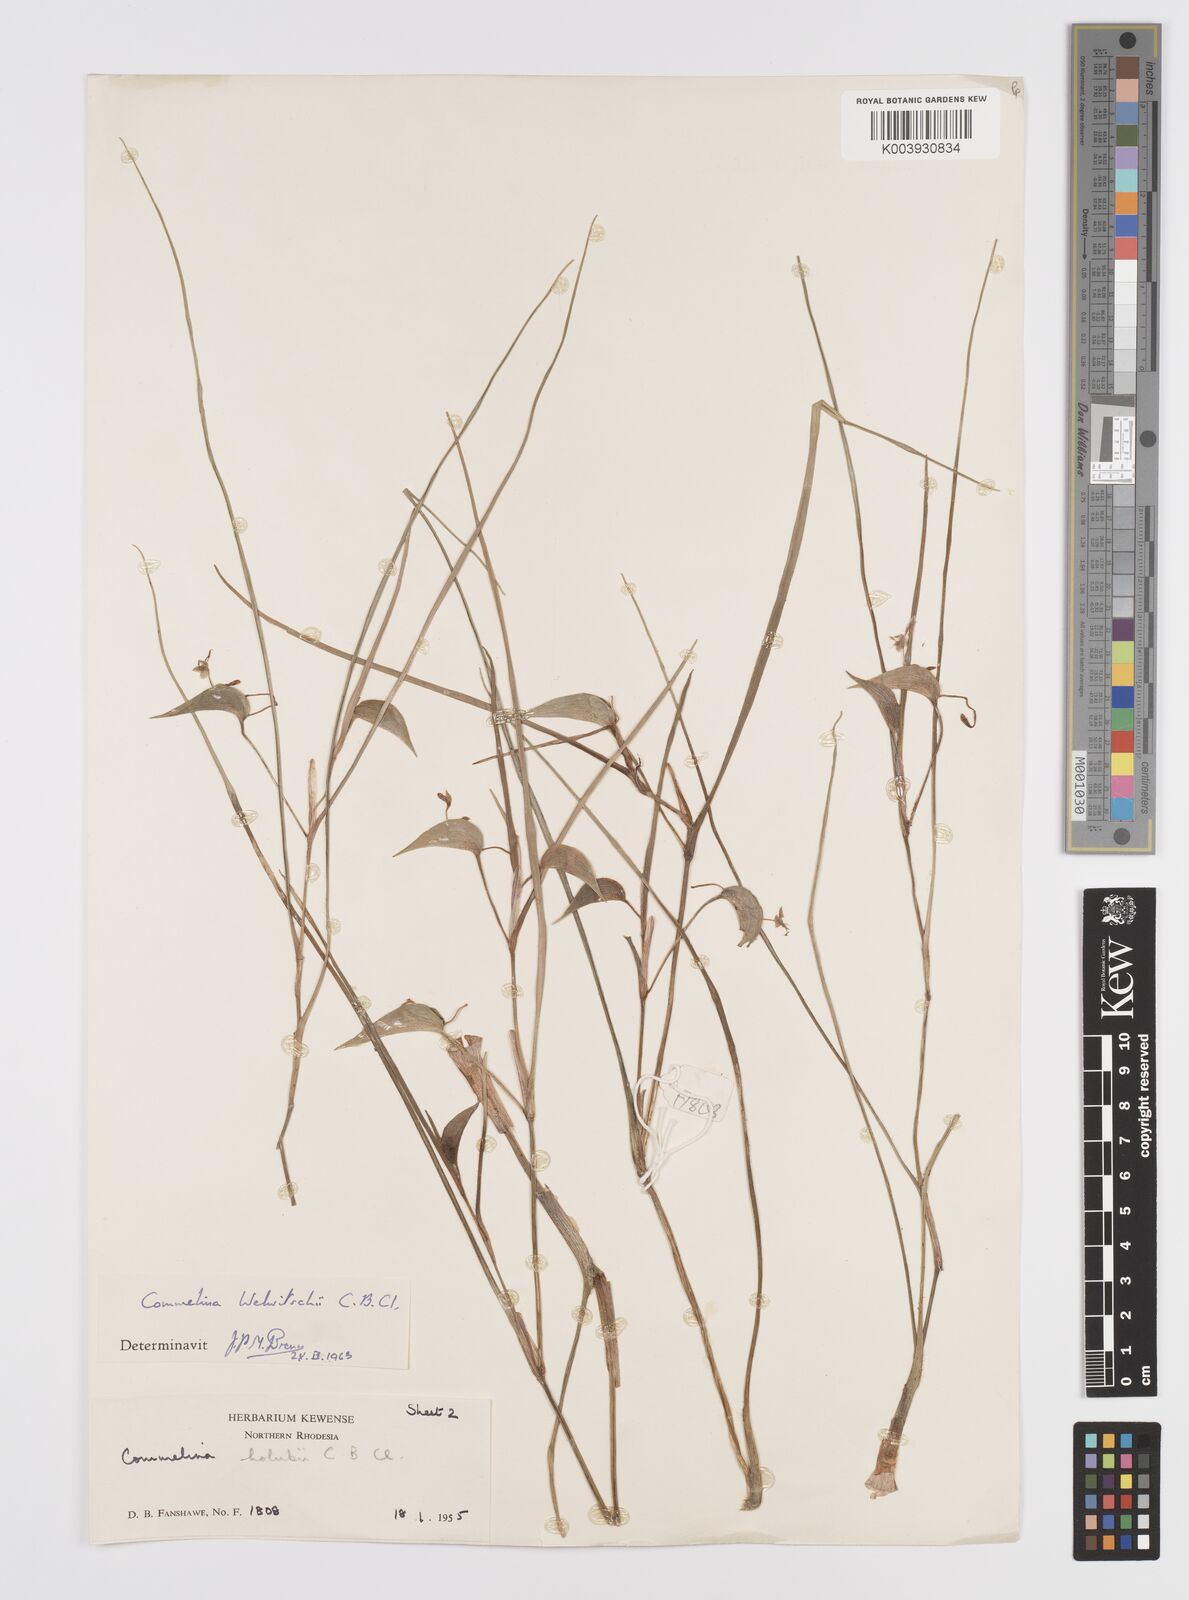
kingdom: Plantae
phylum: Tracheophyta
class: Liliopsida
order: Commelinales
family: Commelinaceae
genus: Commelina
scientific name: Commelina welwitschii
